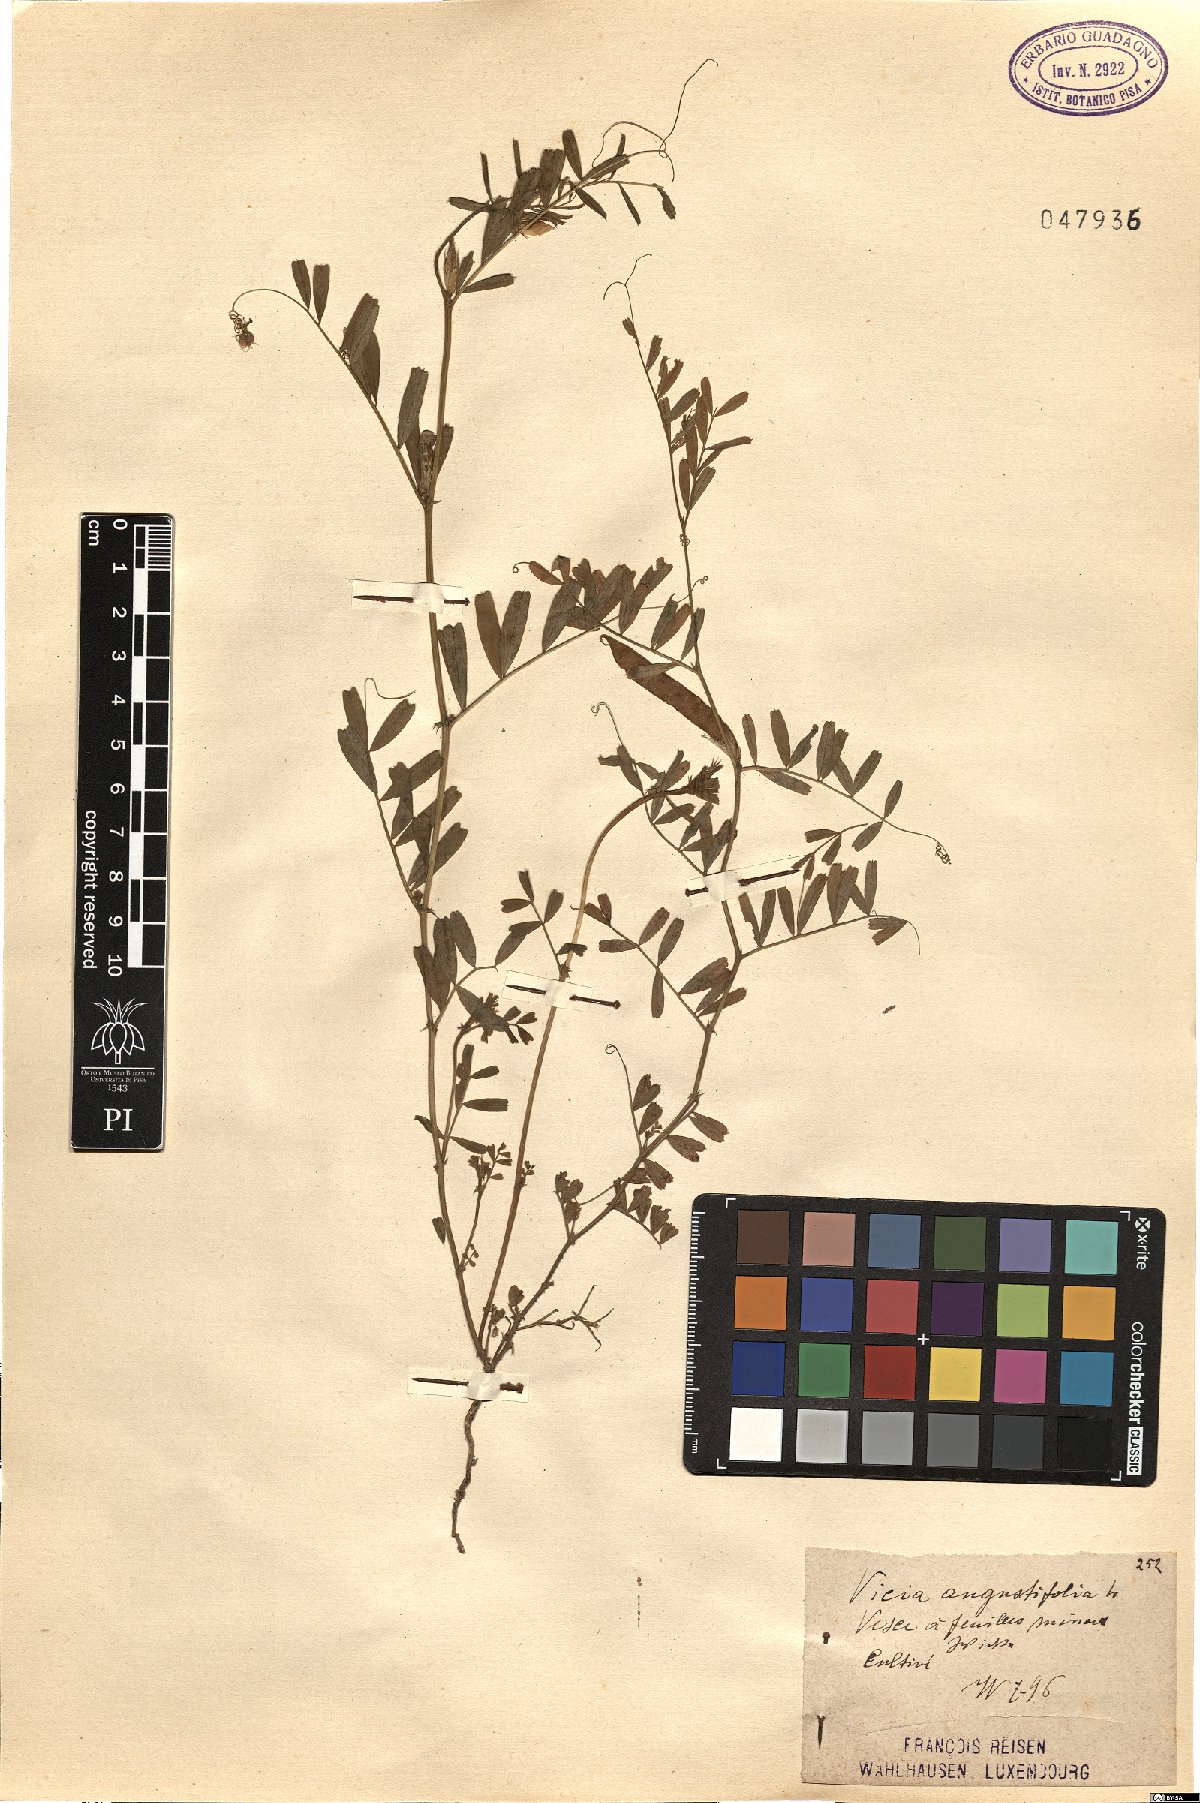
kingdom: Plantae
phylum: Tracheophyta
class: Magnoliopsida
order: Fabales
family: Fabaceae
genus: Vicia
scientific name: Vicia sativa
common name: Garden vetch
